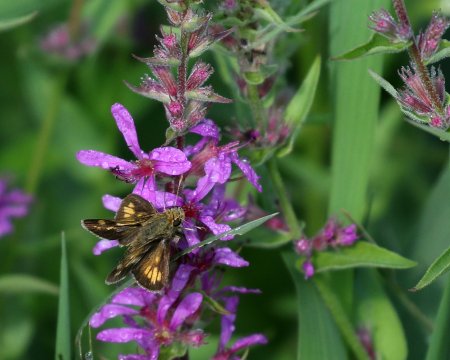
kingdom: Animalia
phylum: Arthropoda
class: Insecta
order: Lepidoptera
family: Hesperiidae
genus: Polites
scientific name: Polites coras
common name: Peck's Skipper
